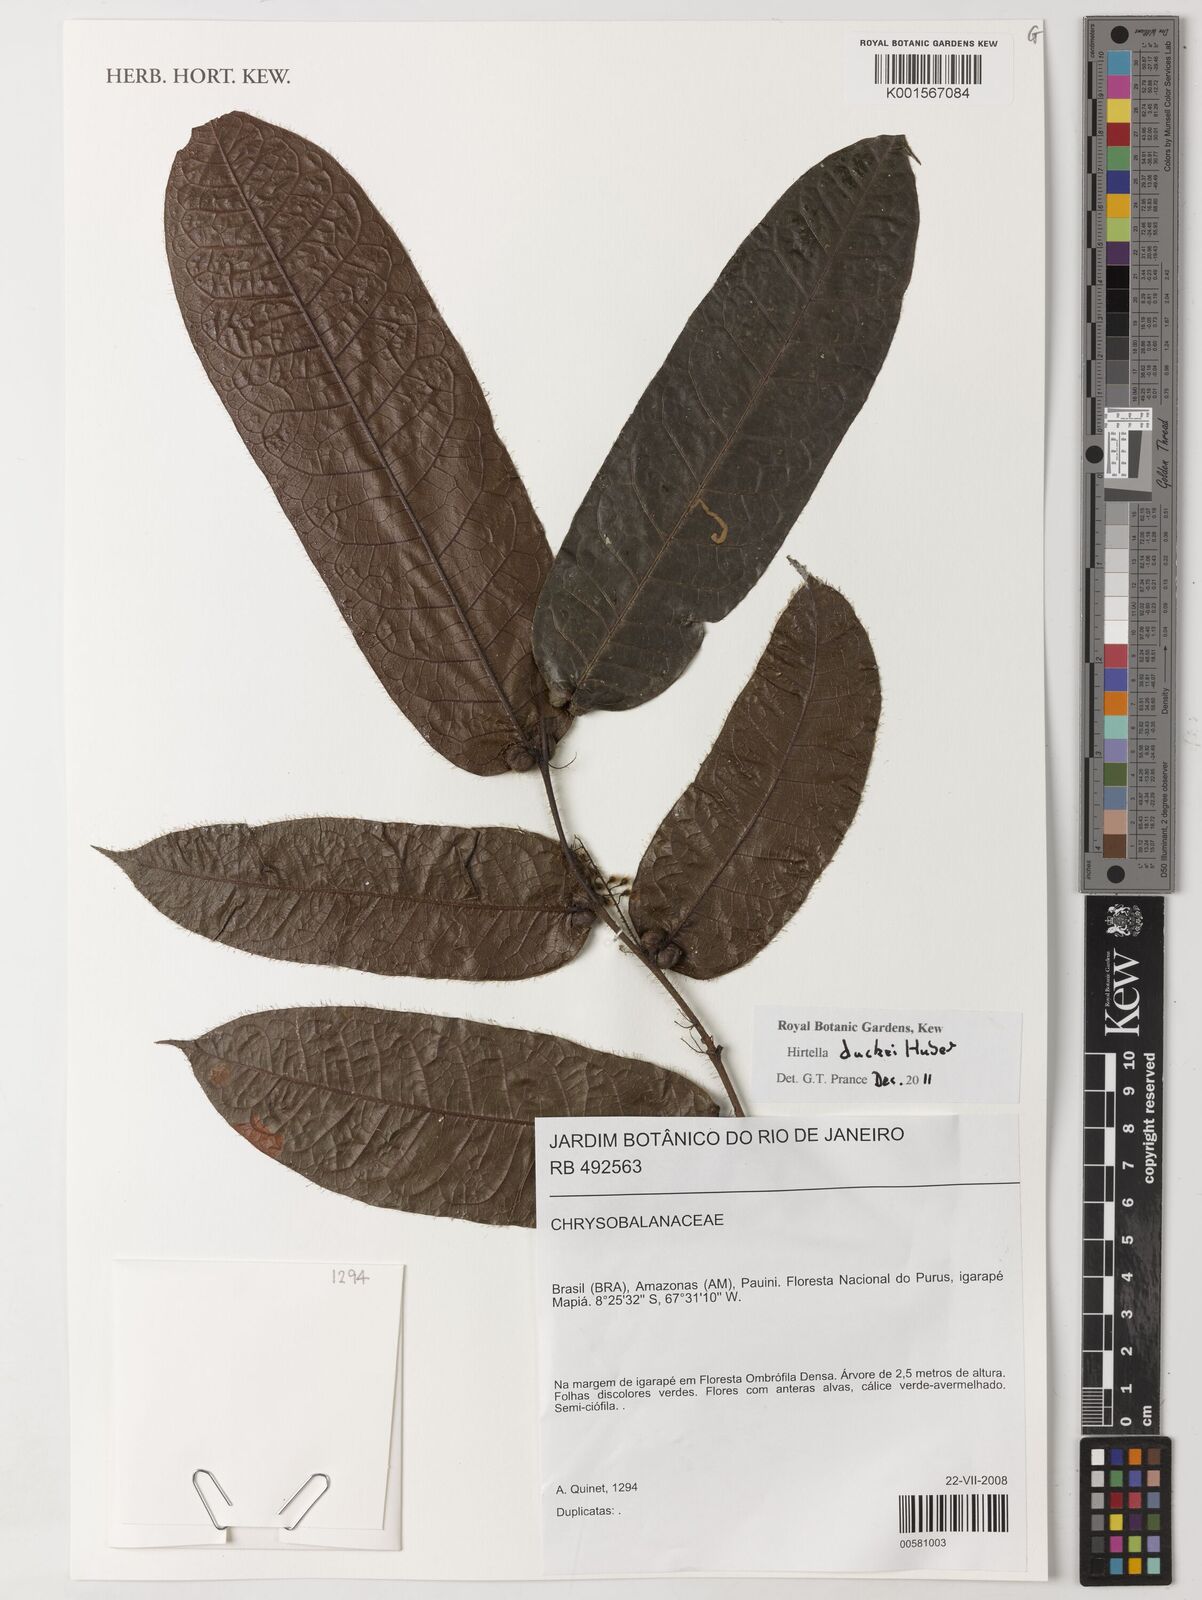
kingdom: Plantae
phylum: Tracheophyta
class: Magnoliopsida
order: Malpighiales
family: Chrysobalanaceae
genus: Hirtella
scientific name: Hirtella duckei
